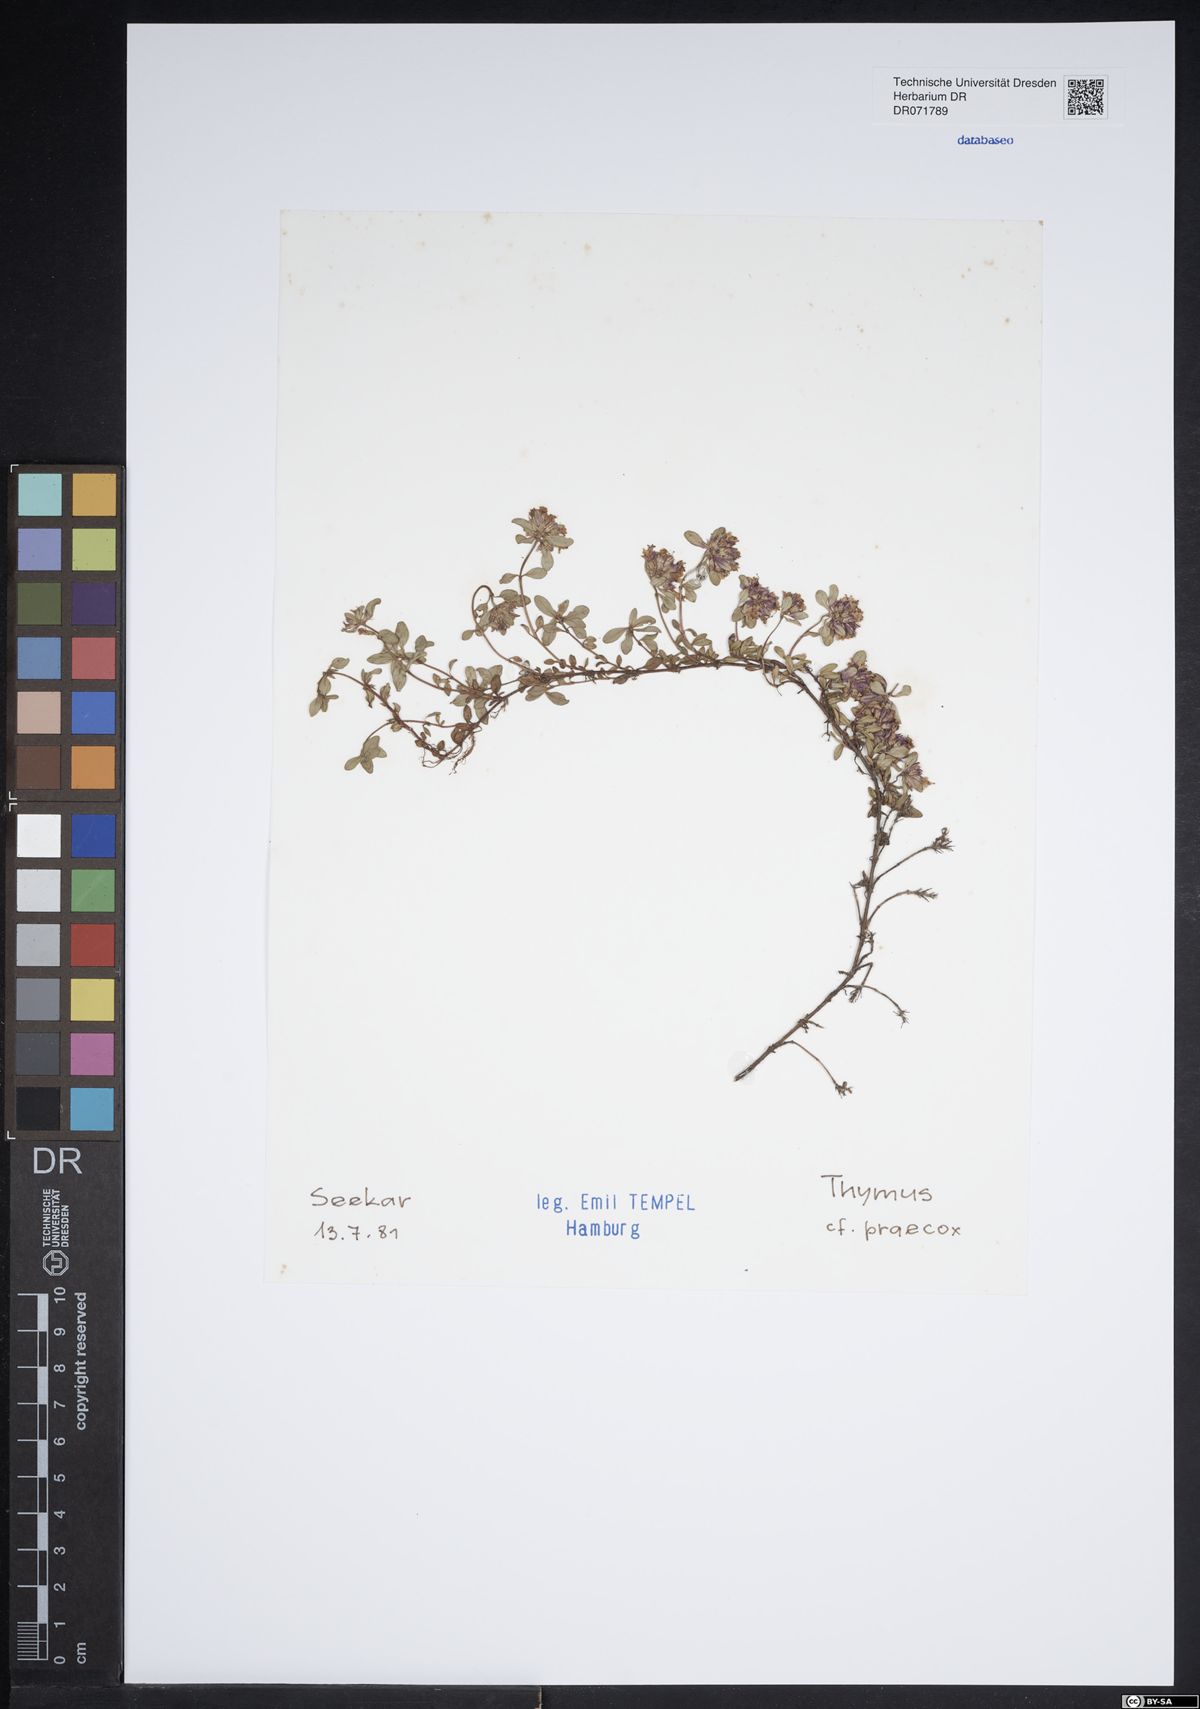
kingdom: Plantae
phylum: Tracheophyta
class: Magnoliopsida
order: Lamiales
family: Lamiaceae
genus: Thymus
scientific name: Thymus praecox
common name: Wild thyme
